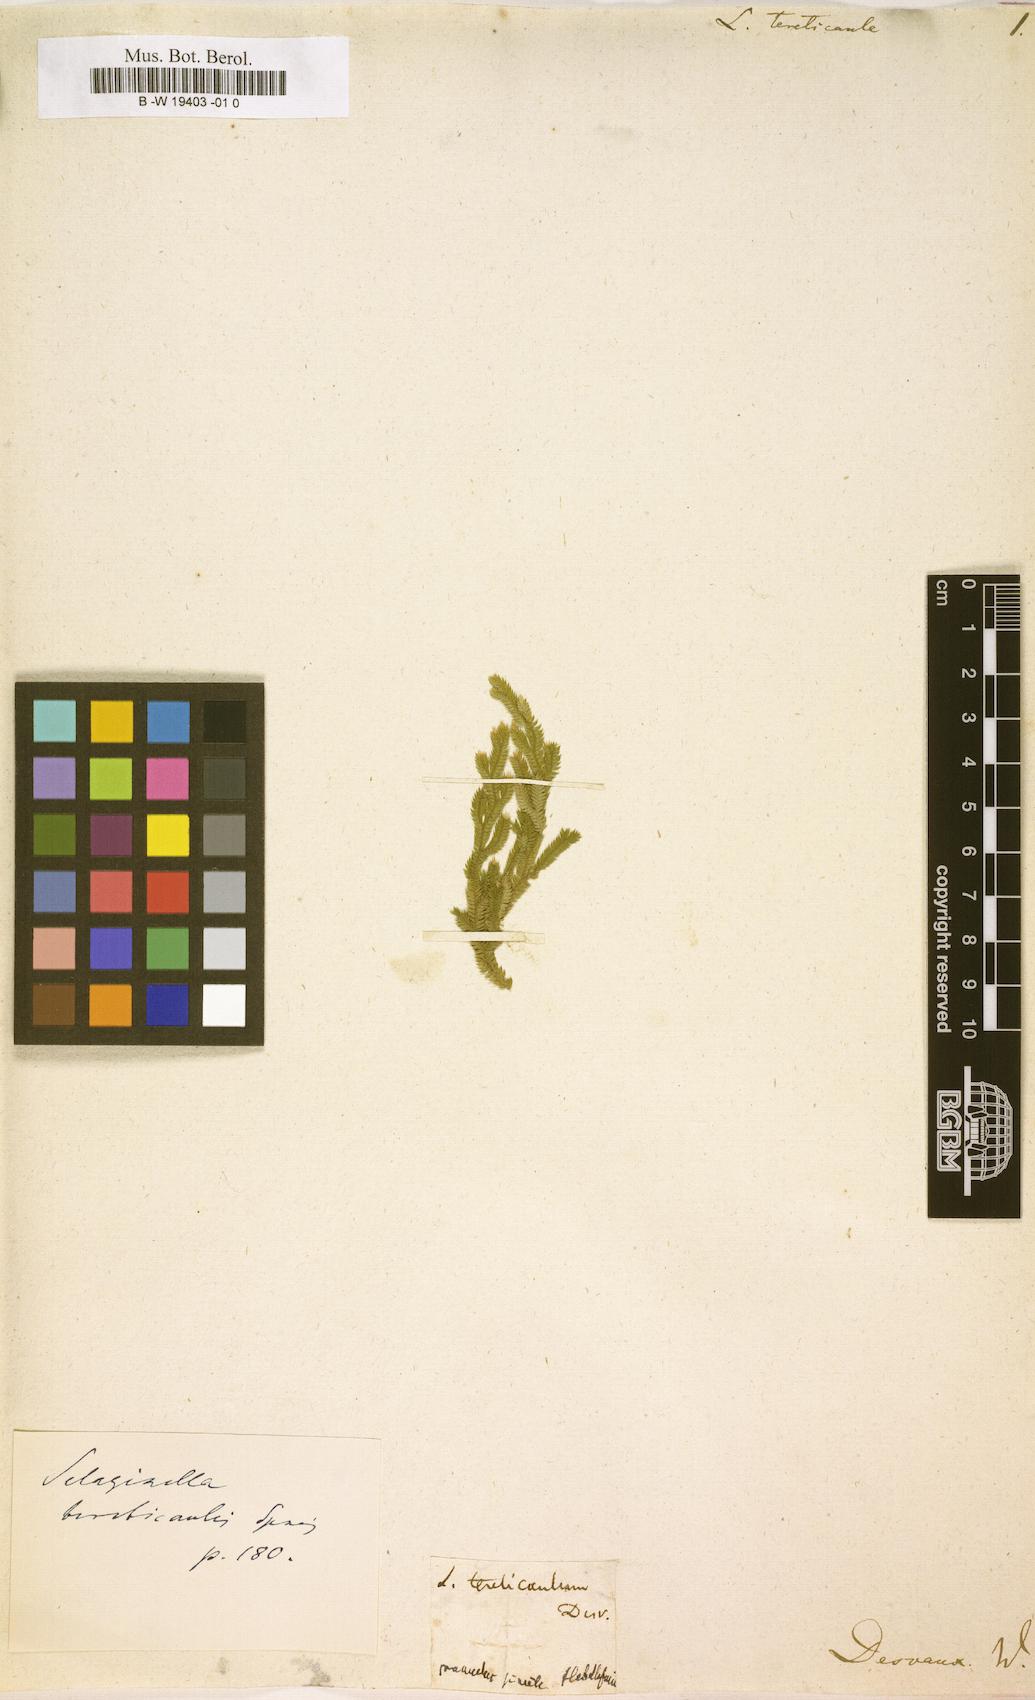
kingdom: Plantae
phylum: Tracheophyta
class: Lycopodiopsida
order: Selaginellales
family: Selaginellaceae
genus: Selaginella
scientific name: Selaginella tereticaulis
